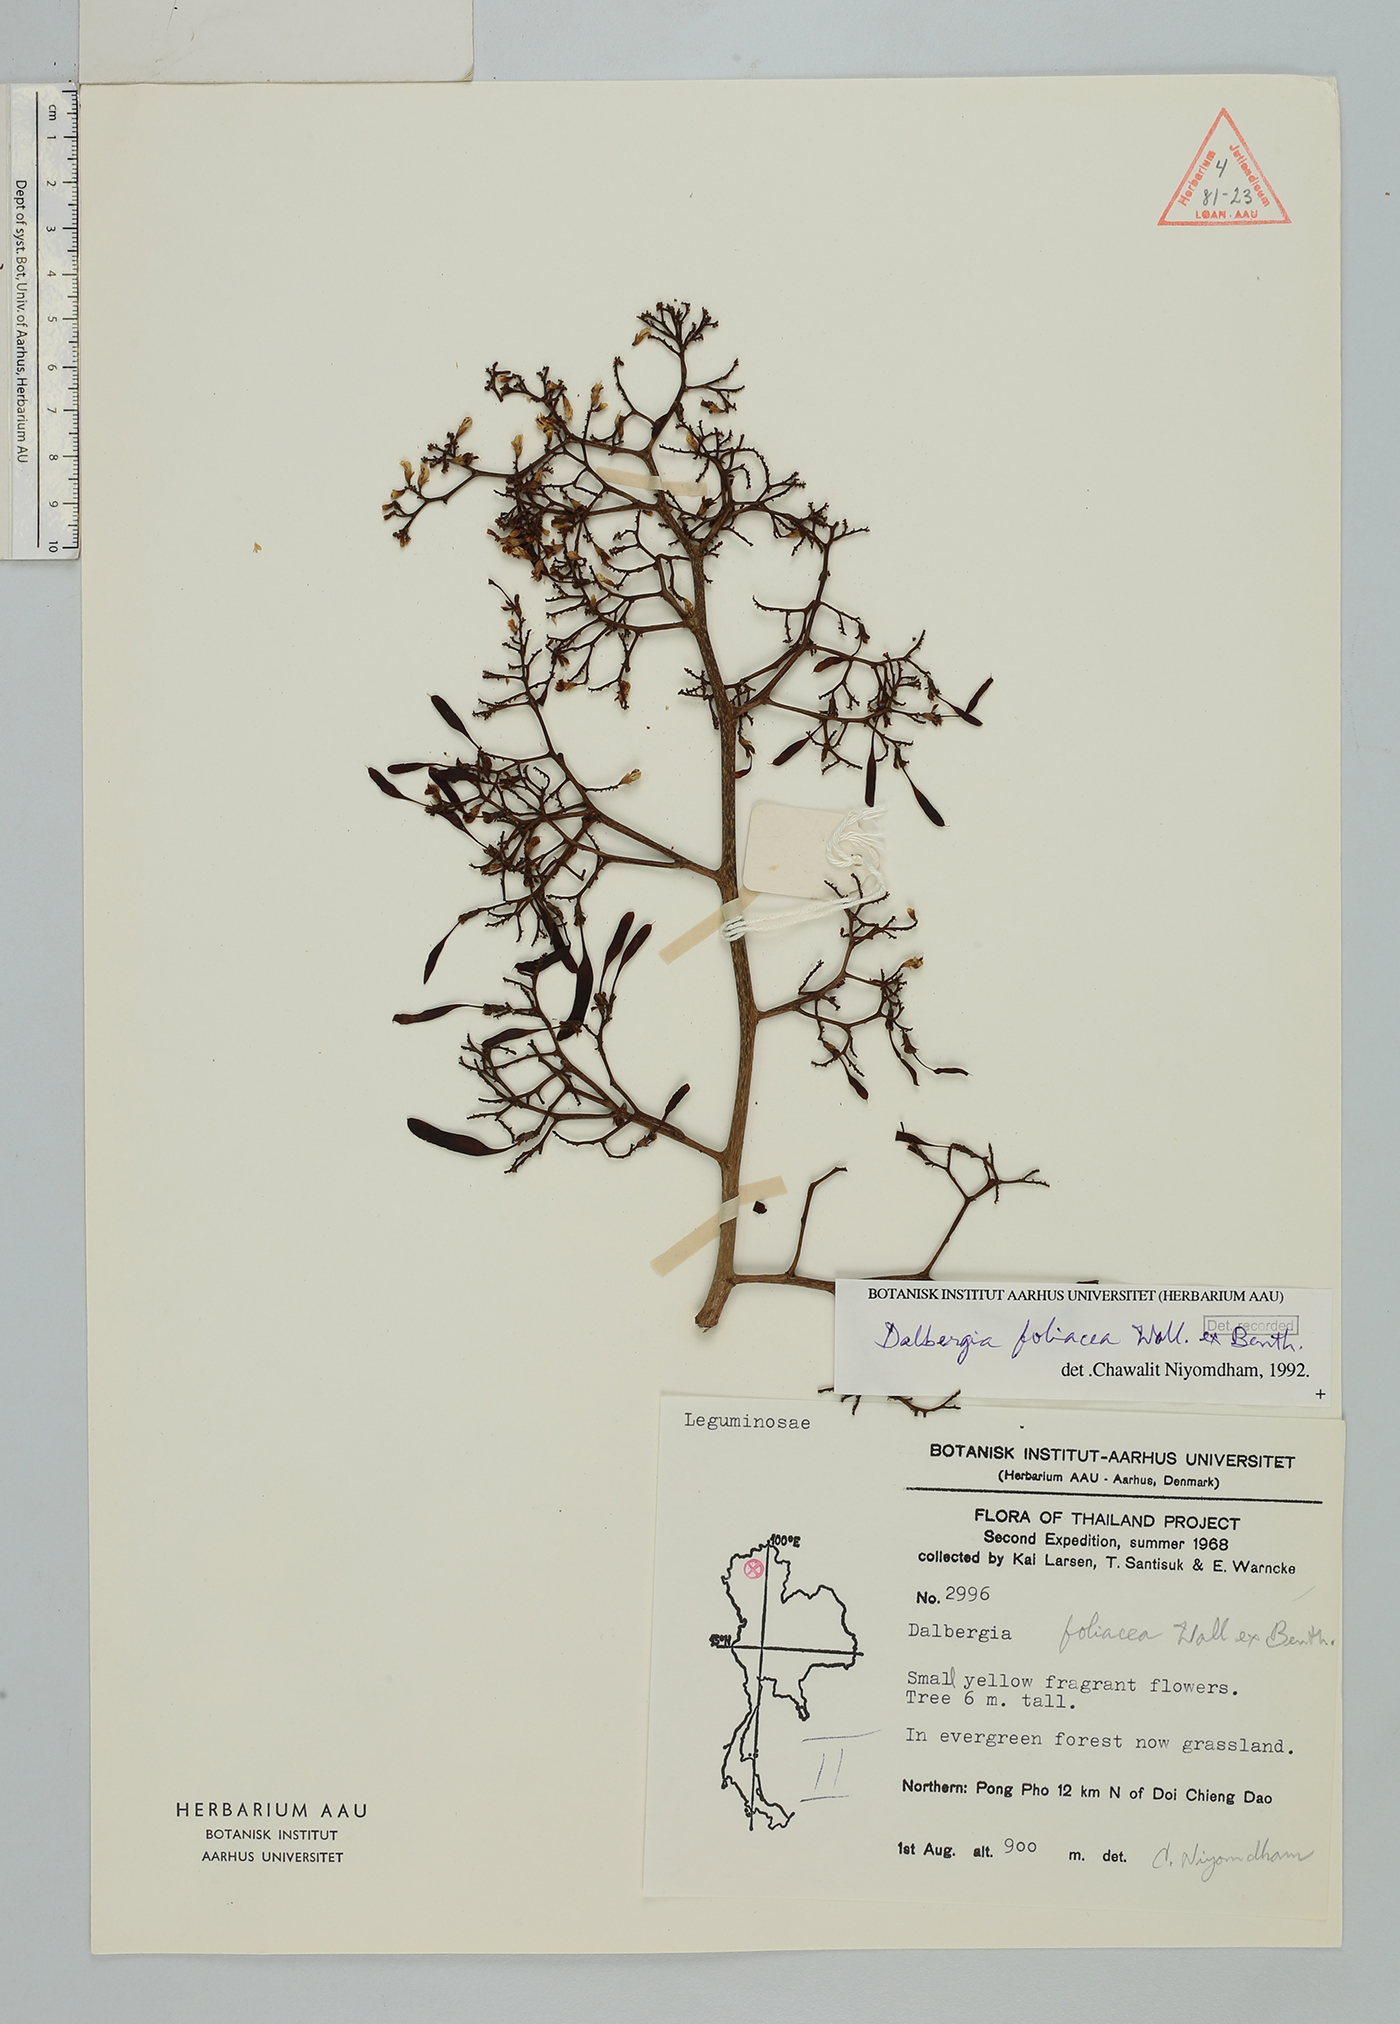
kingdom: Plantae
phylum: Tracheophyta
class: Magnoliopsida
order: Fabales
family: Fabaceae
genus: Dalbergia
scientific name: Dalbergia foliosa
